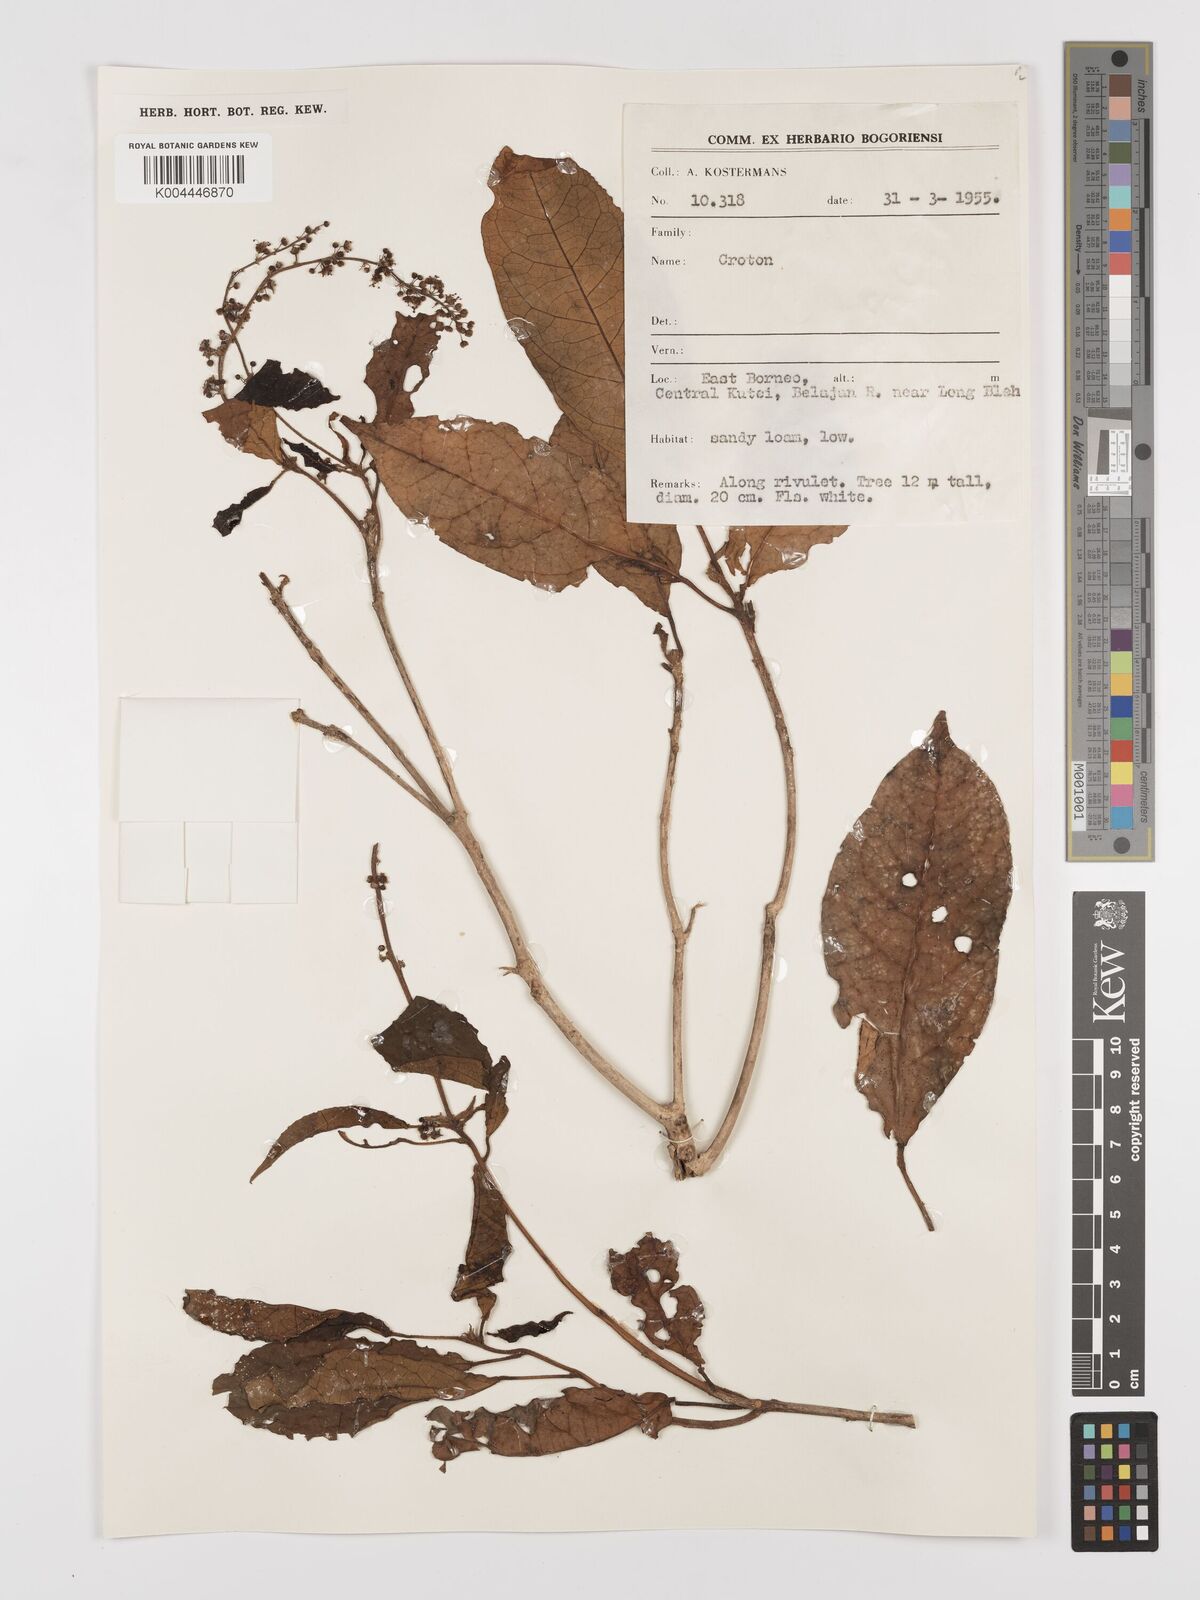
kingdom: Plantae
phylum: Tracheophyta
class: Magnoliopsida
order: Malpighiales
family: Euphorbiaceae
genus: Croton
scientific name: Croton oblongus
